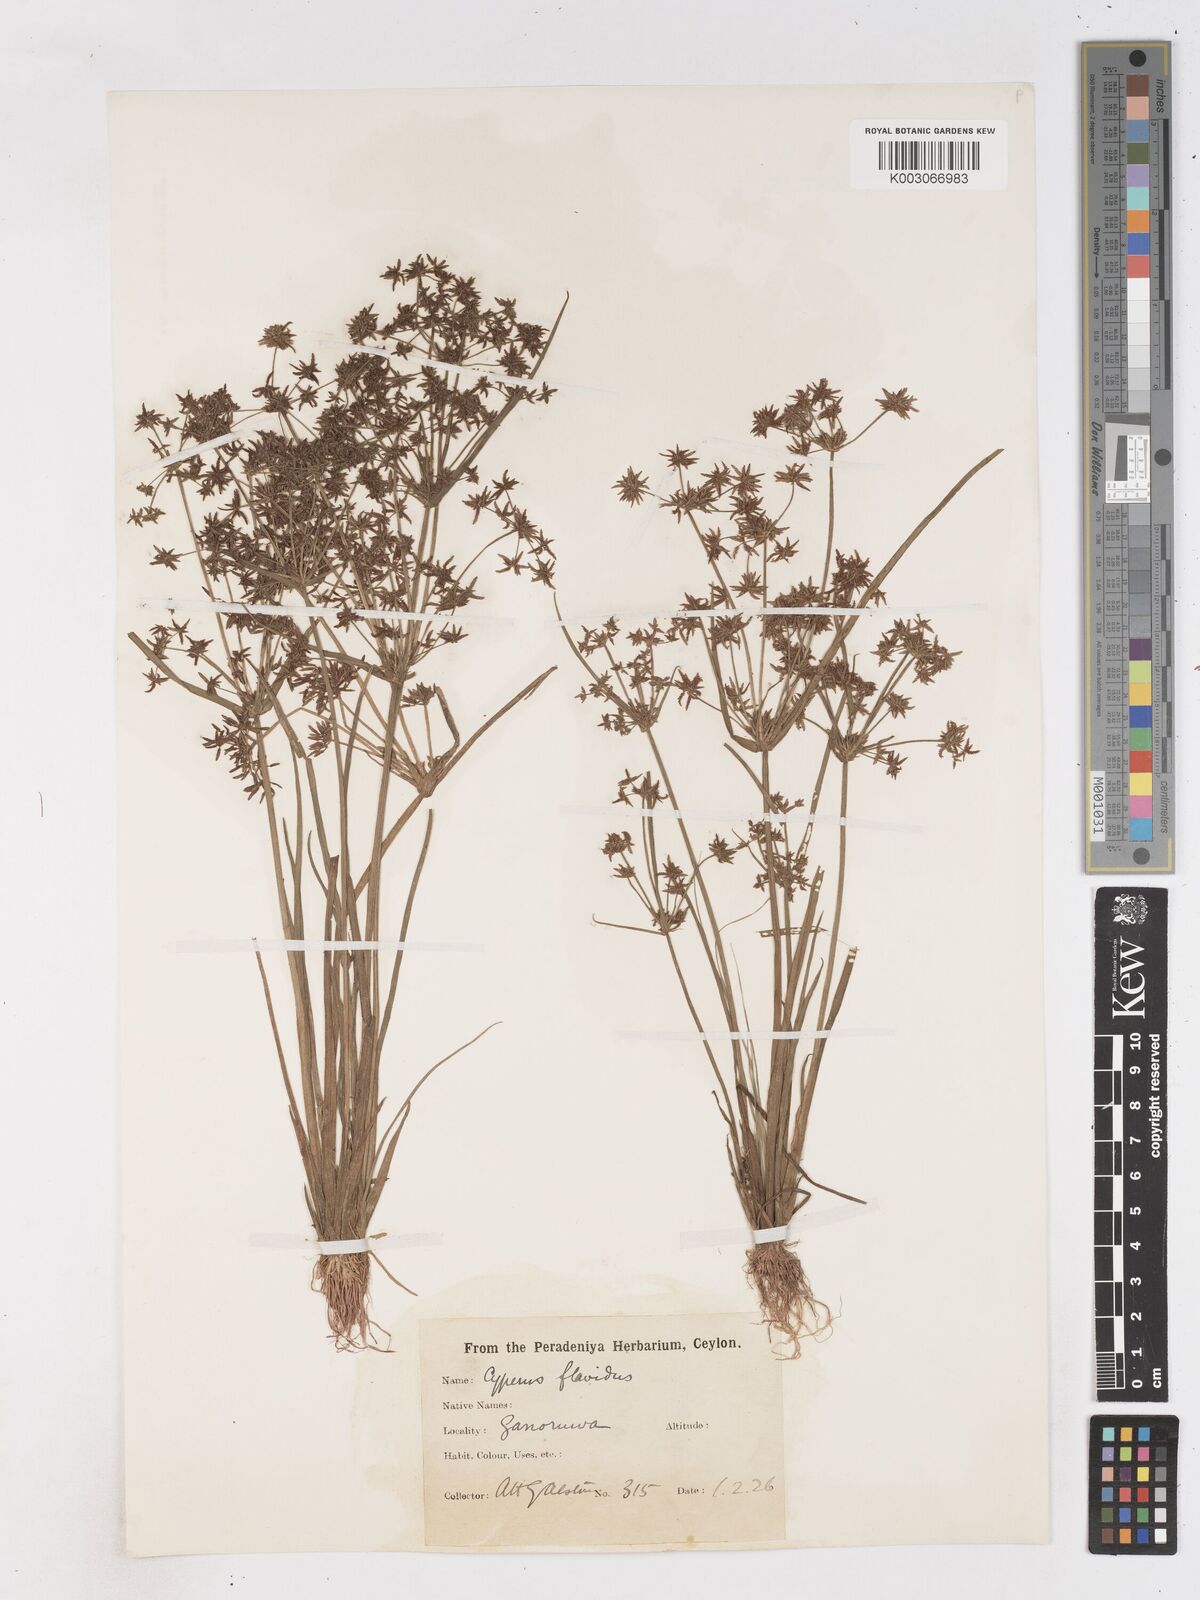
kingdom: Plantae
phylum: Tracheophyta
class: Liliopsida
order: Poales
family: Cyperaceae
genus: Cyperus
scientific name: Cyperus tenuispica
